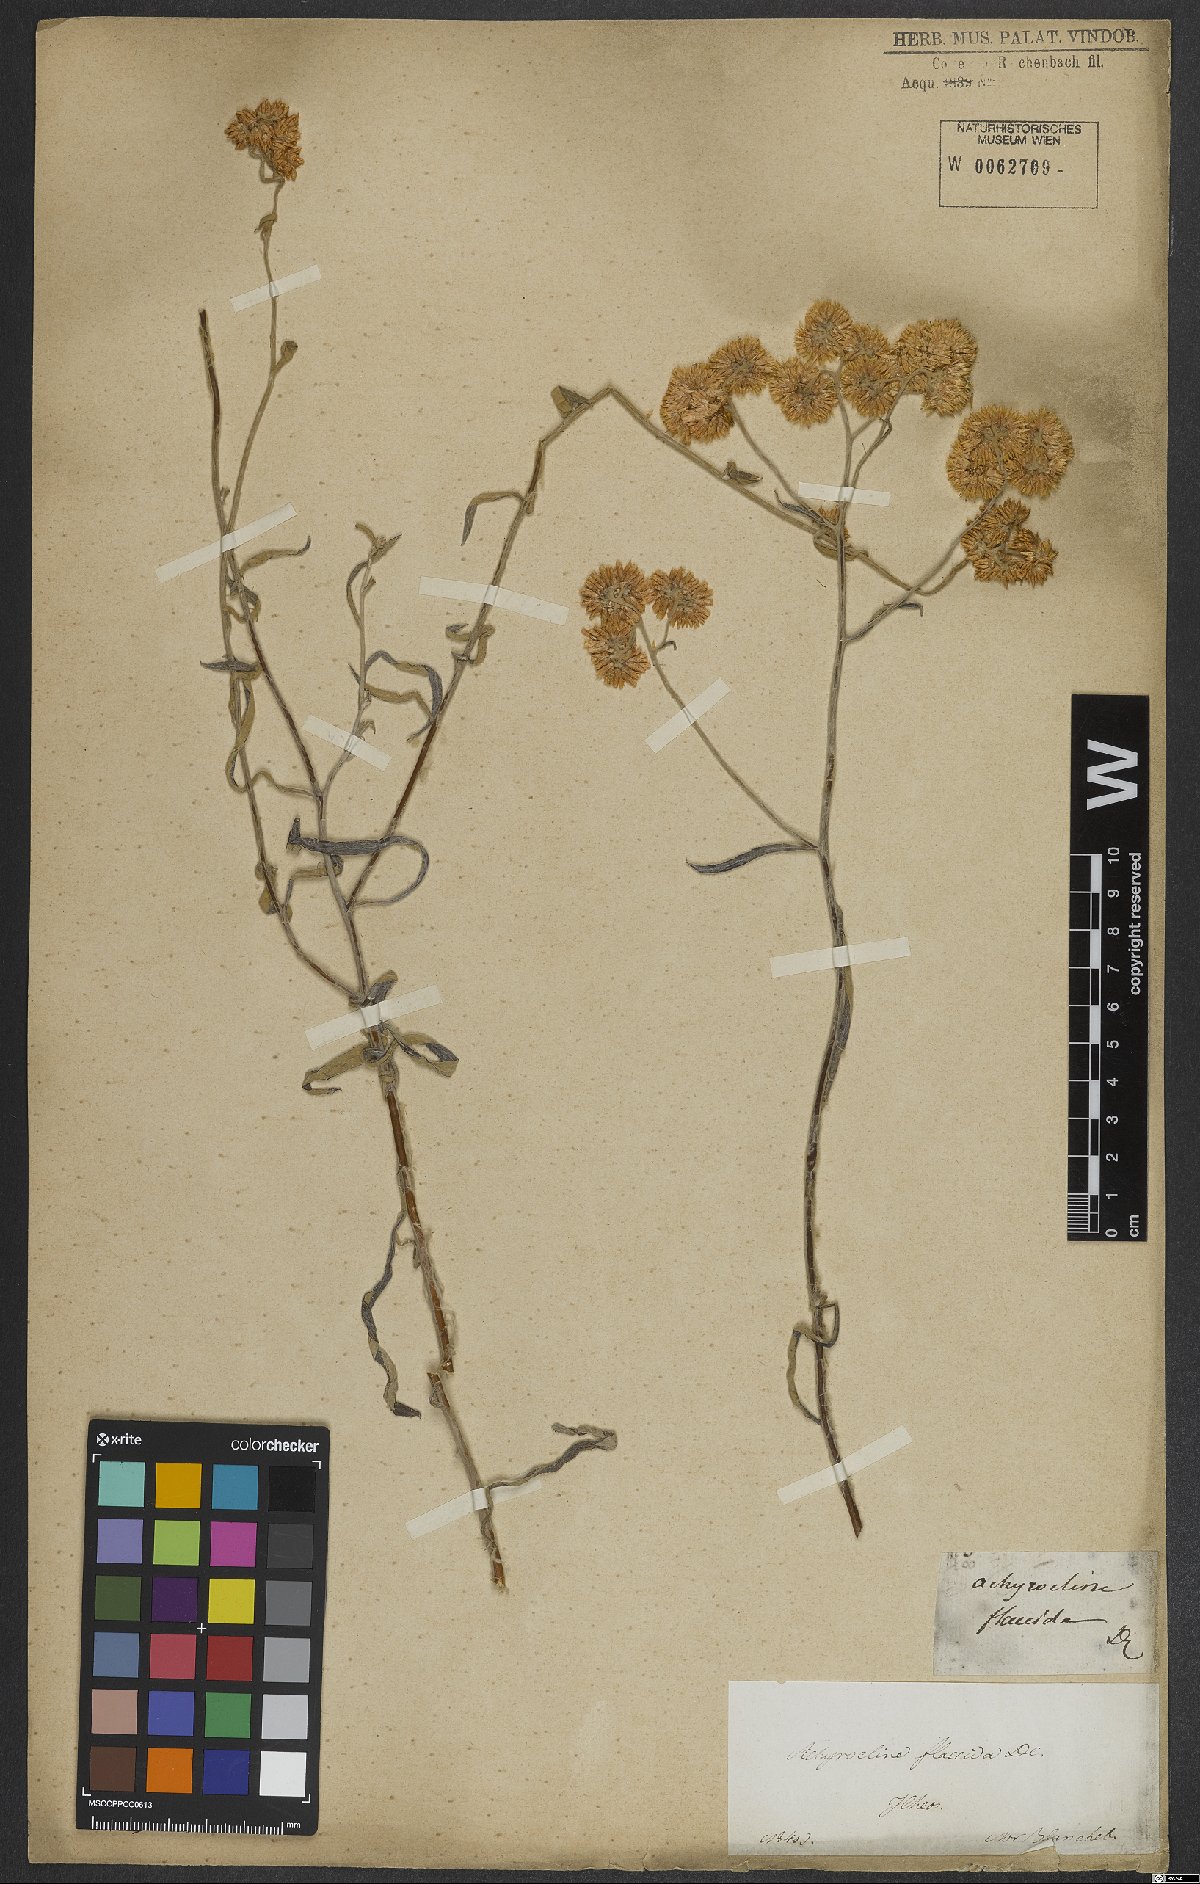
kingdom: Plantae
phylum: Tracheophyta
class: Magnoliopsida
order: Asterales
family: Asteraceae
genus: Achyrocline
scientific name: Achyrocline flaccida
